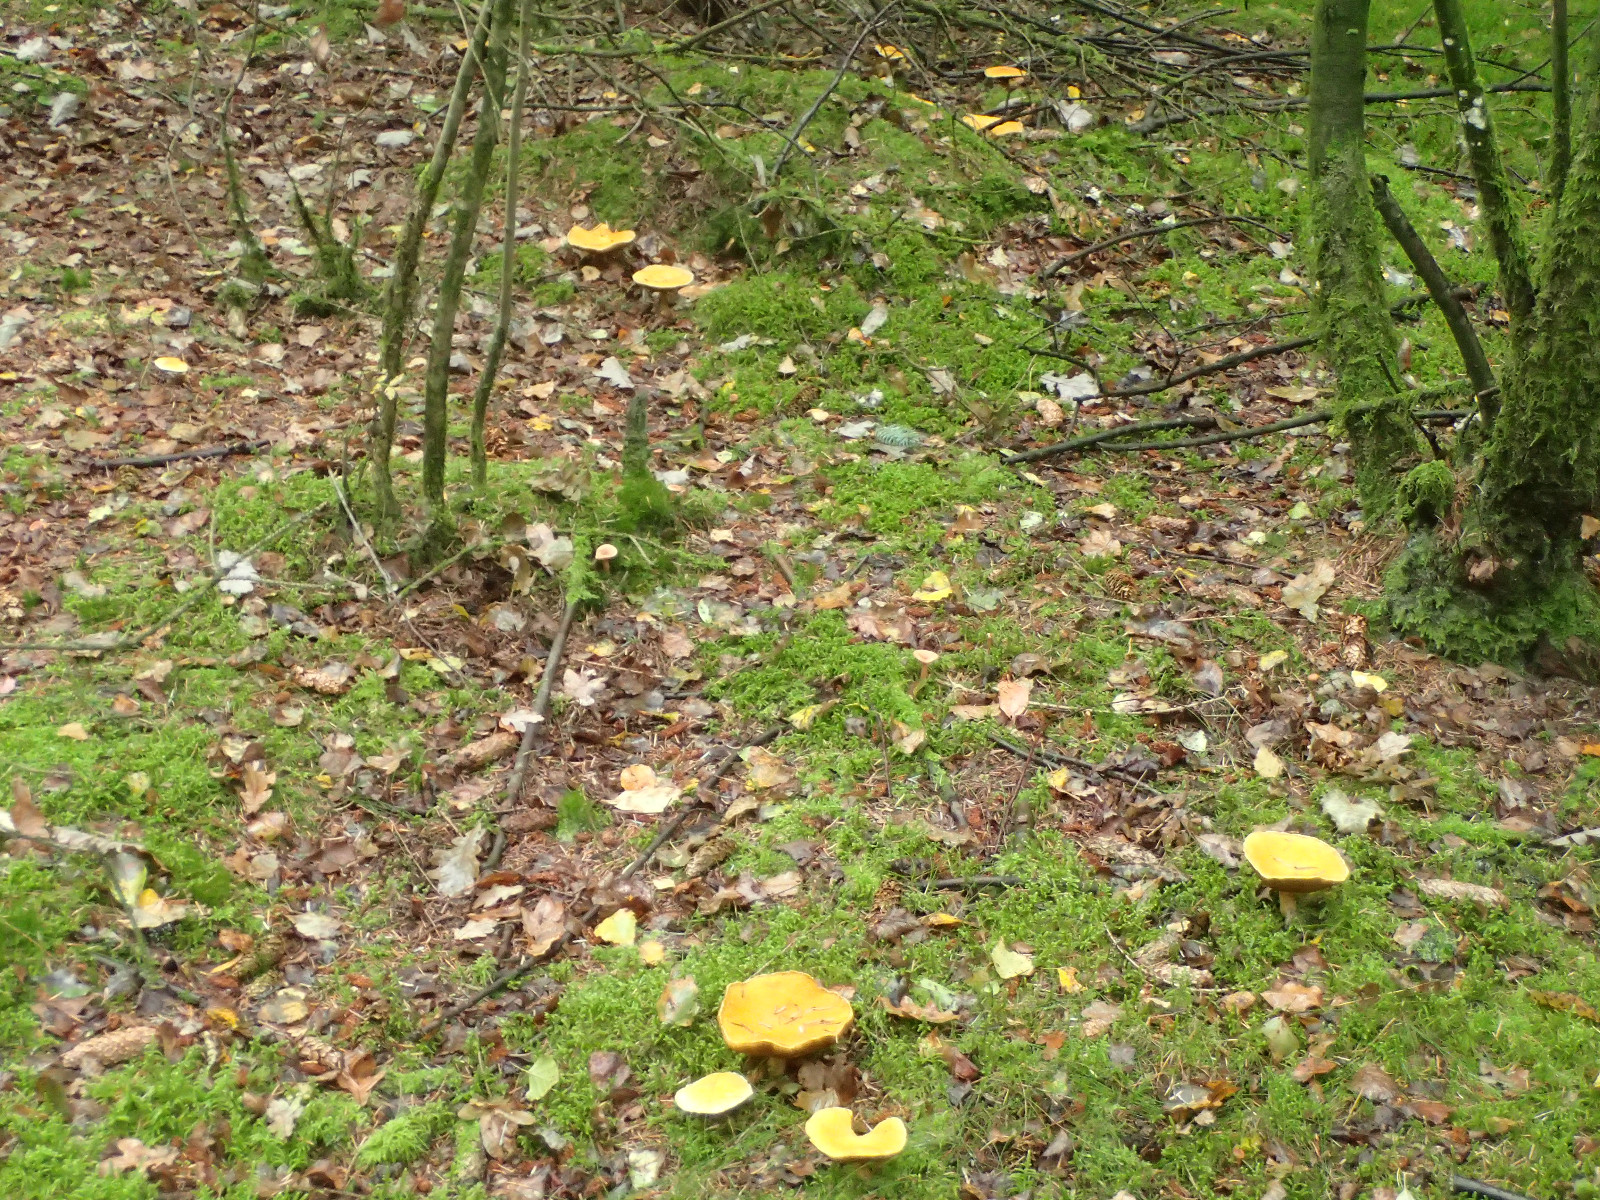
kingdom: Fungi
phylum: Basidiomycota
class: Agaricomycetes
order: Boletales
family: Suillaceae
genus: Suillus
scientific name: Suillus cavipes
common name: hulstokket slimrørhat, gul form
